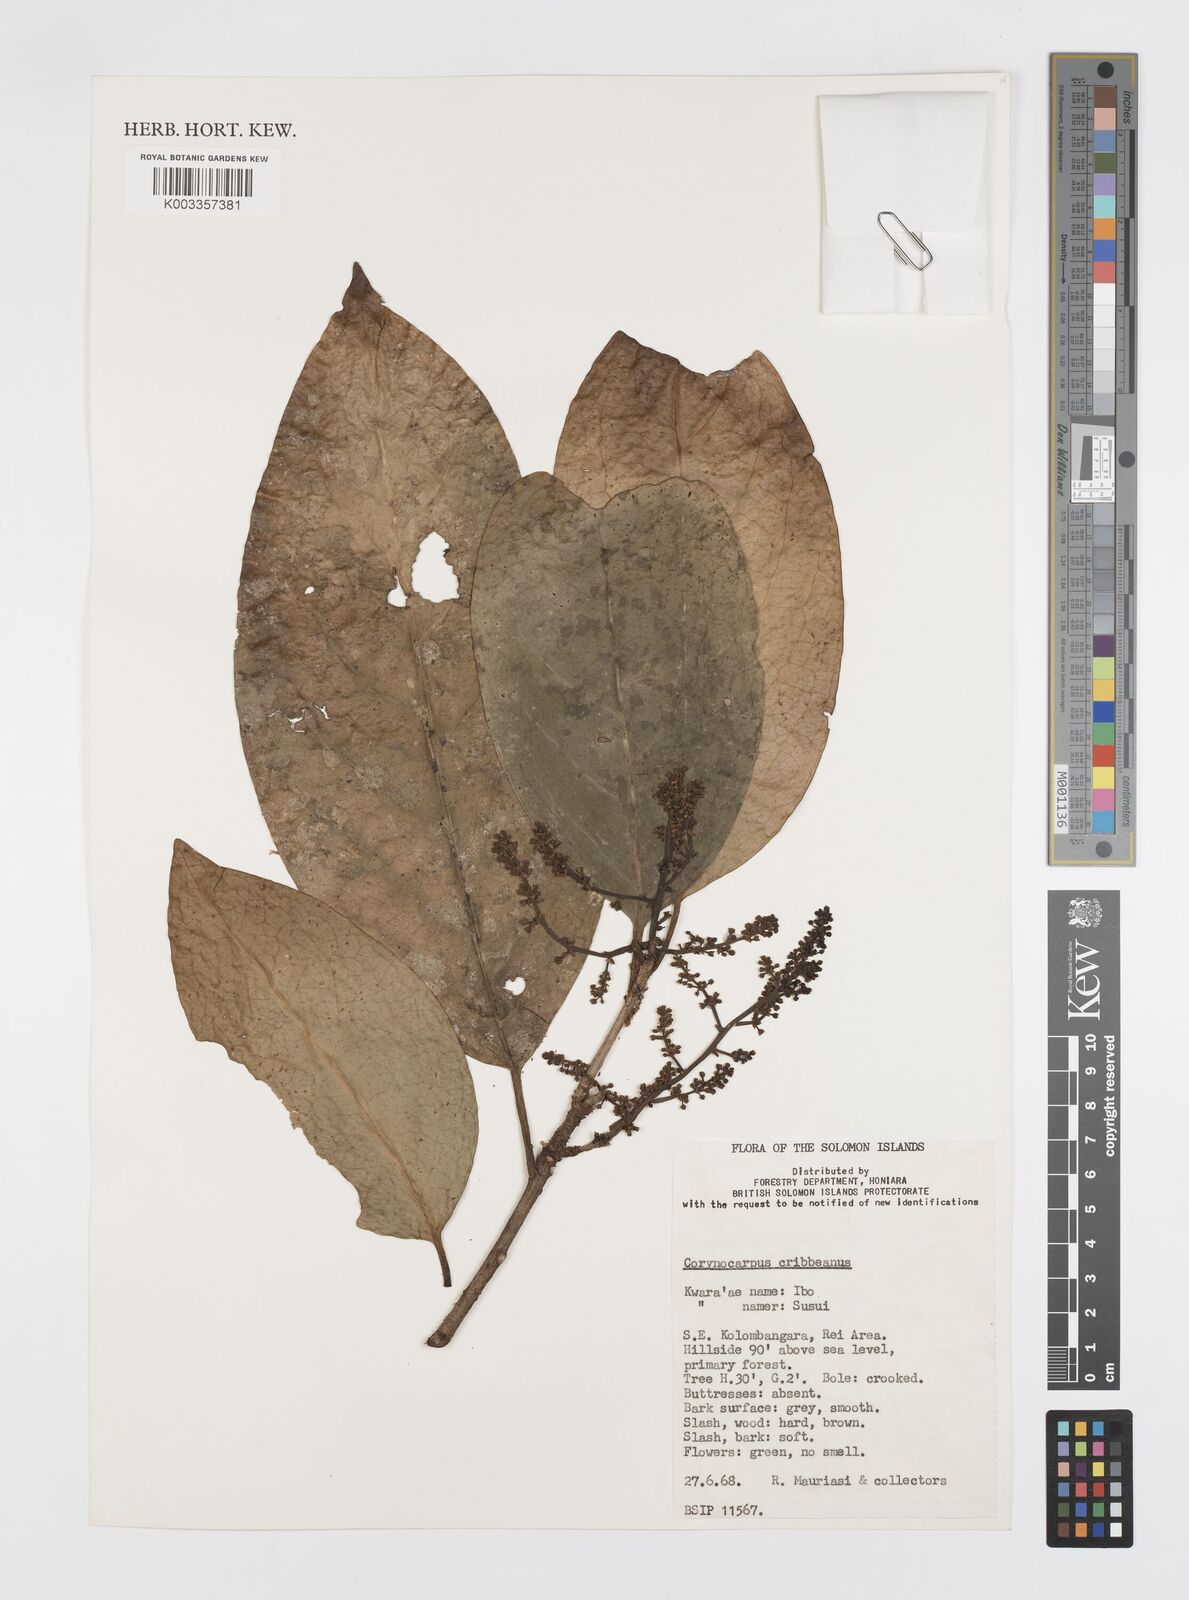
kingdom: Plantae
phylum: Tracheophyta
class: Magnoliopsida
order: Cucurbitales
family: Corynocarpaceae
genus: Corynocarpus
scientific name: Corynocarpus similis
